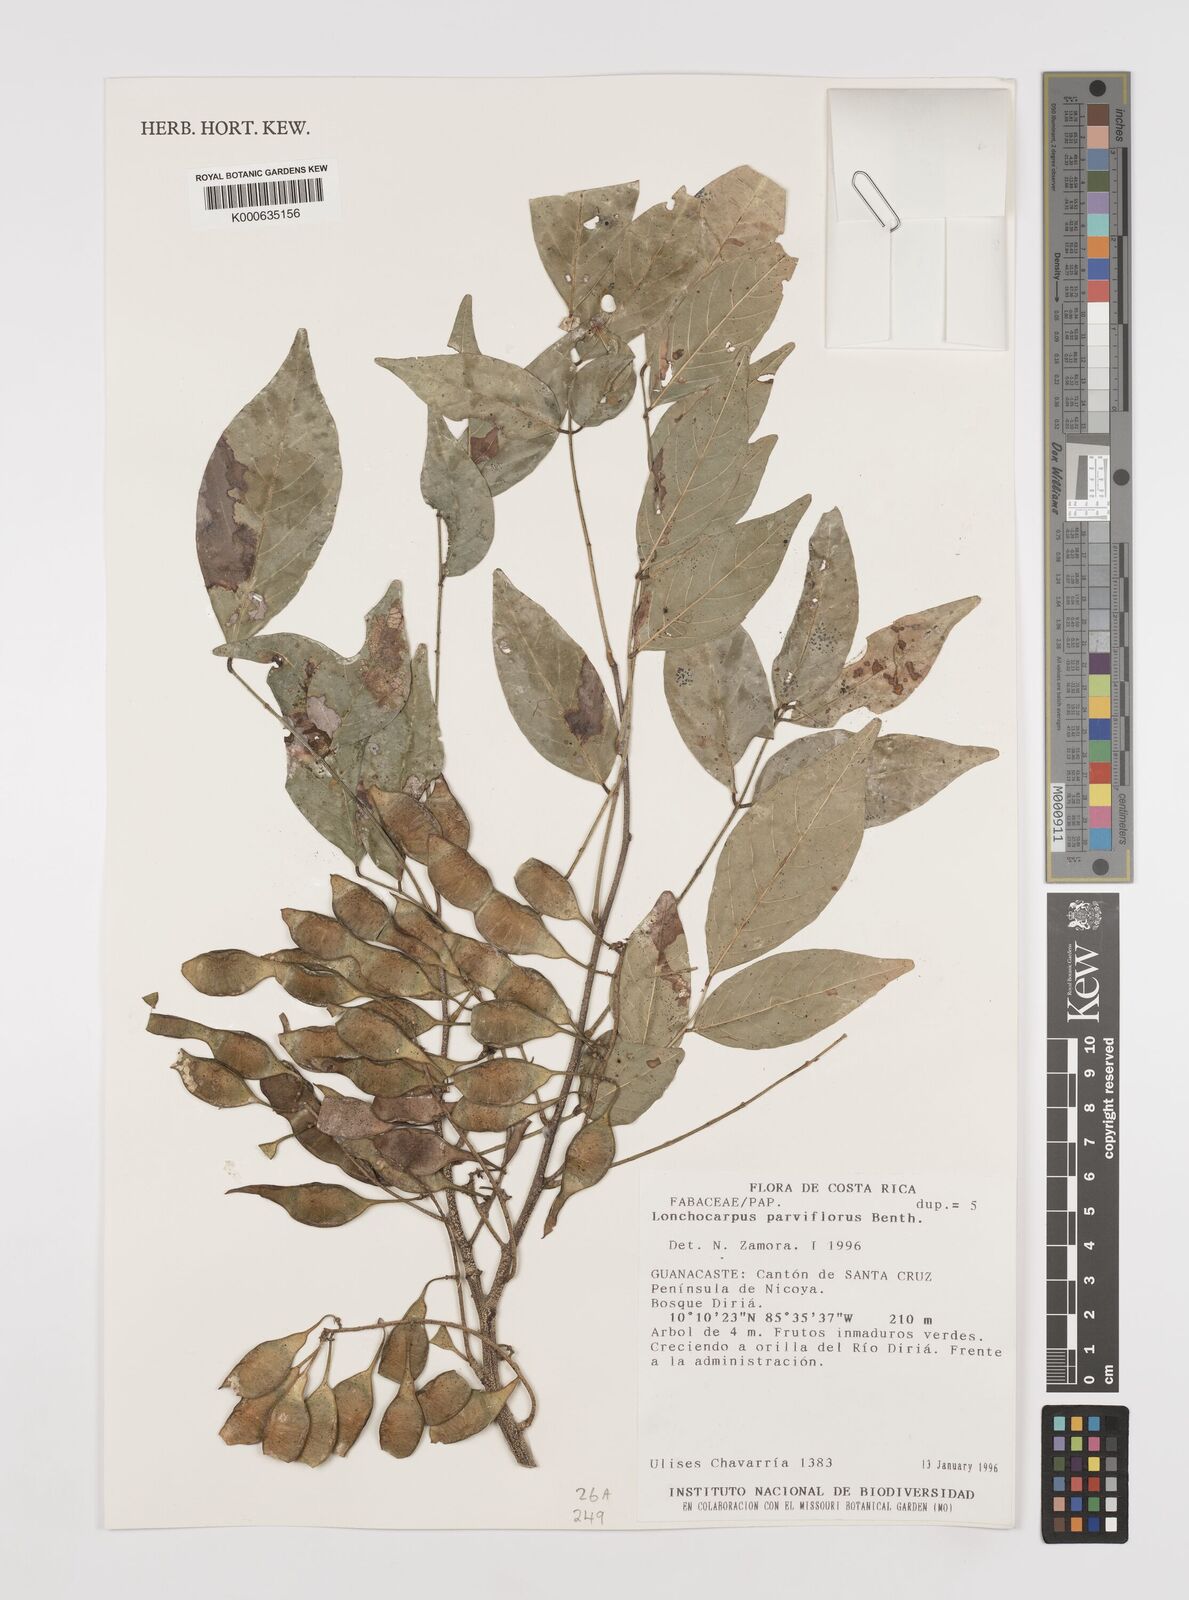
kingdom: Plantae
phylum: Tracheophyta
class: Magnoliopsida
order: Fabales
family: Fabaceae
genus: Lonchocarpus
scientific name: Lonchocarpus parviflorus
